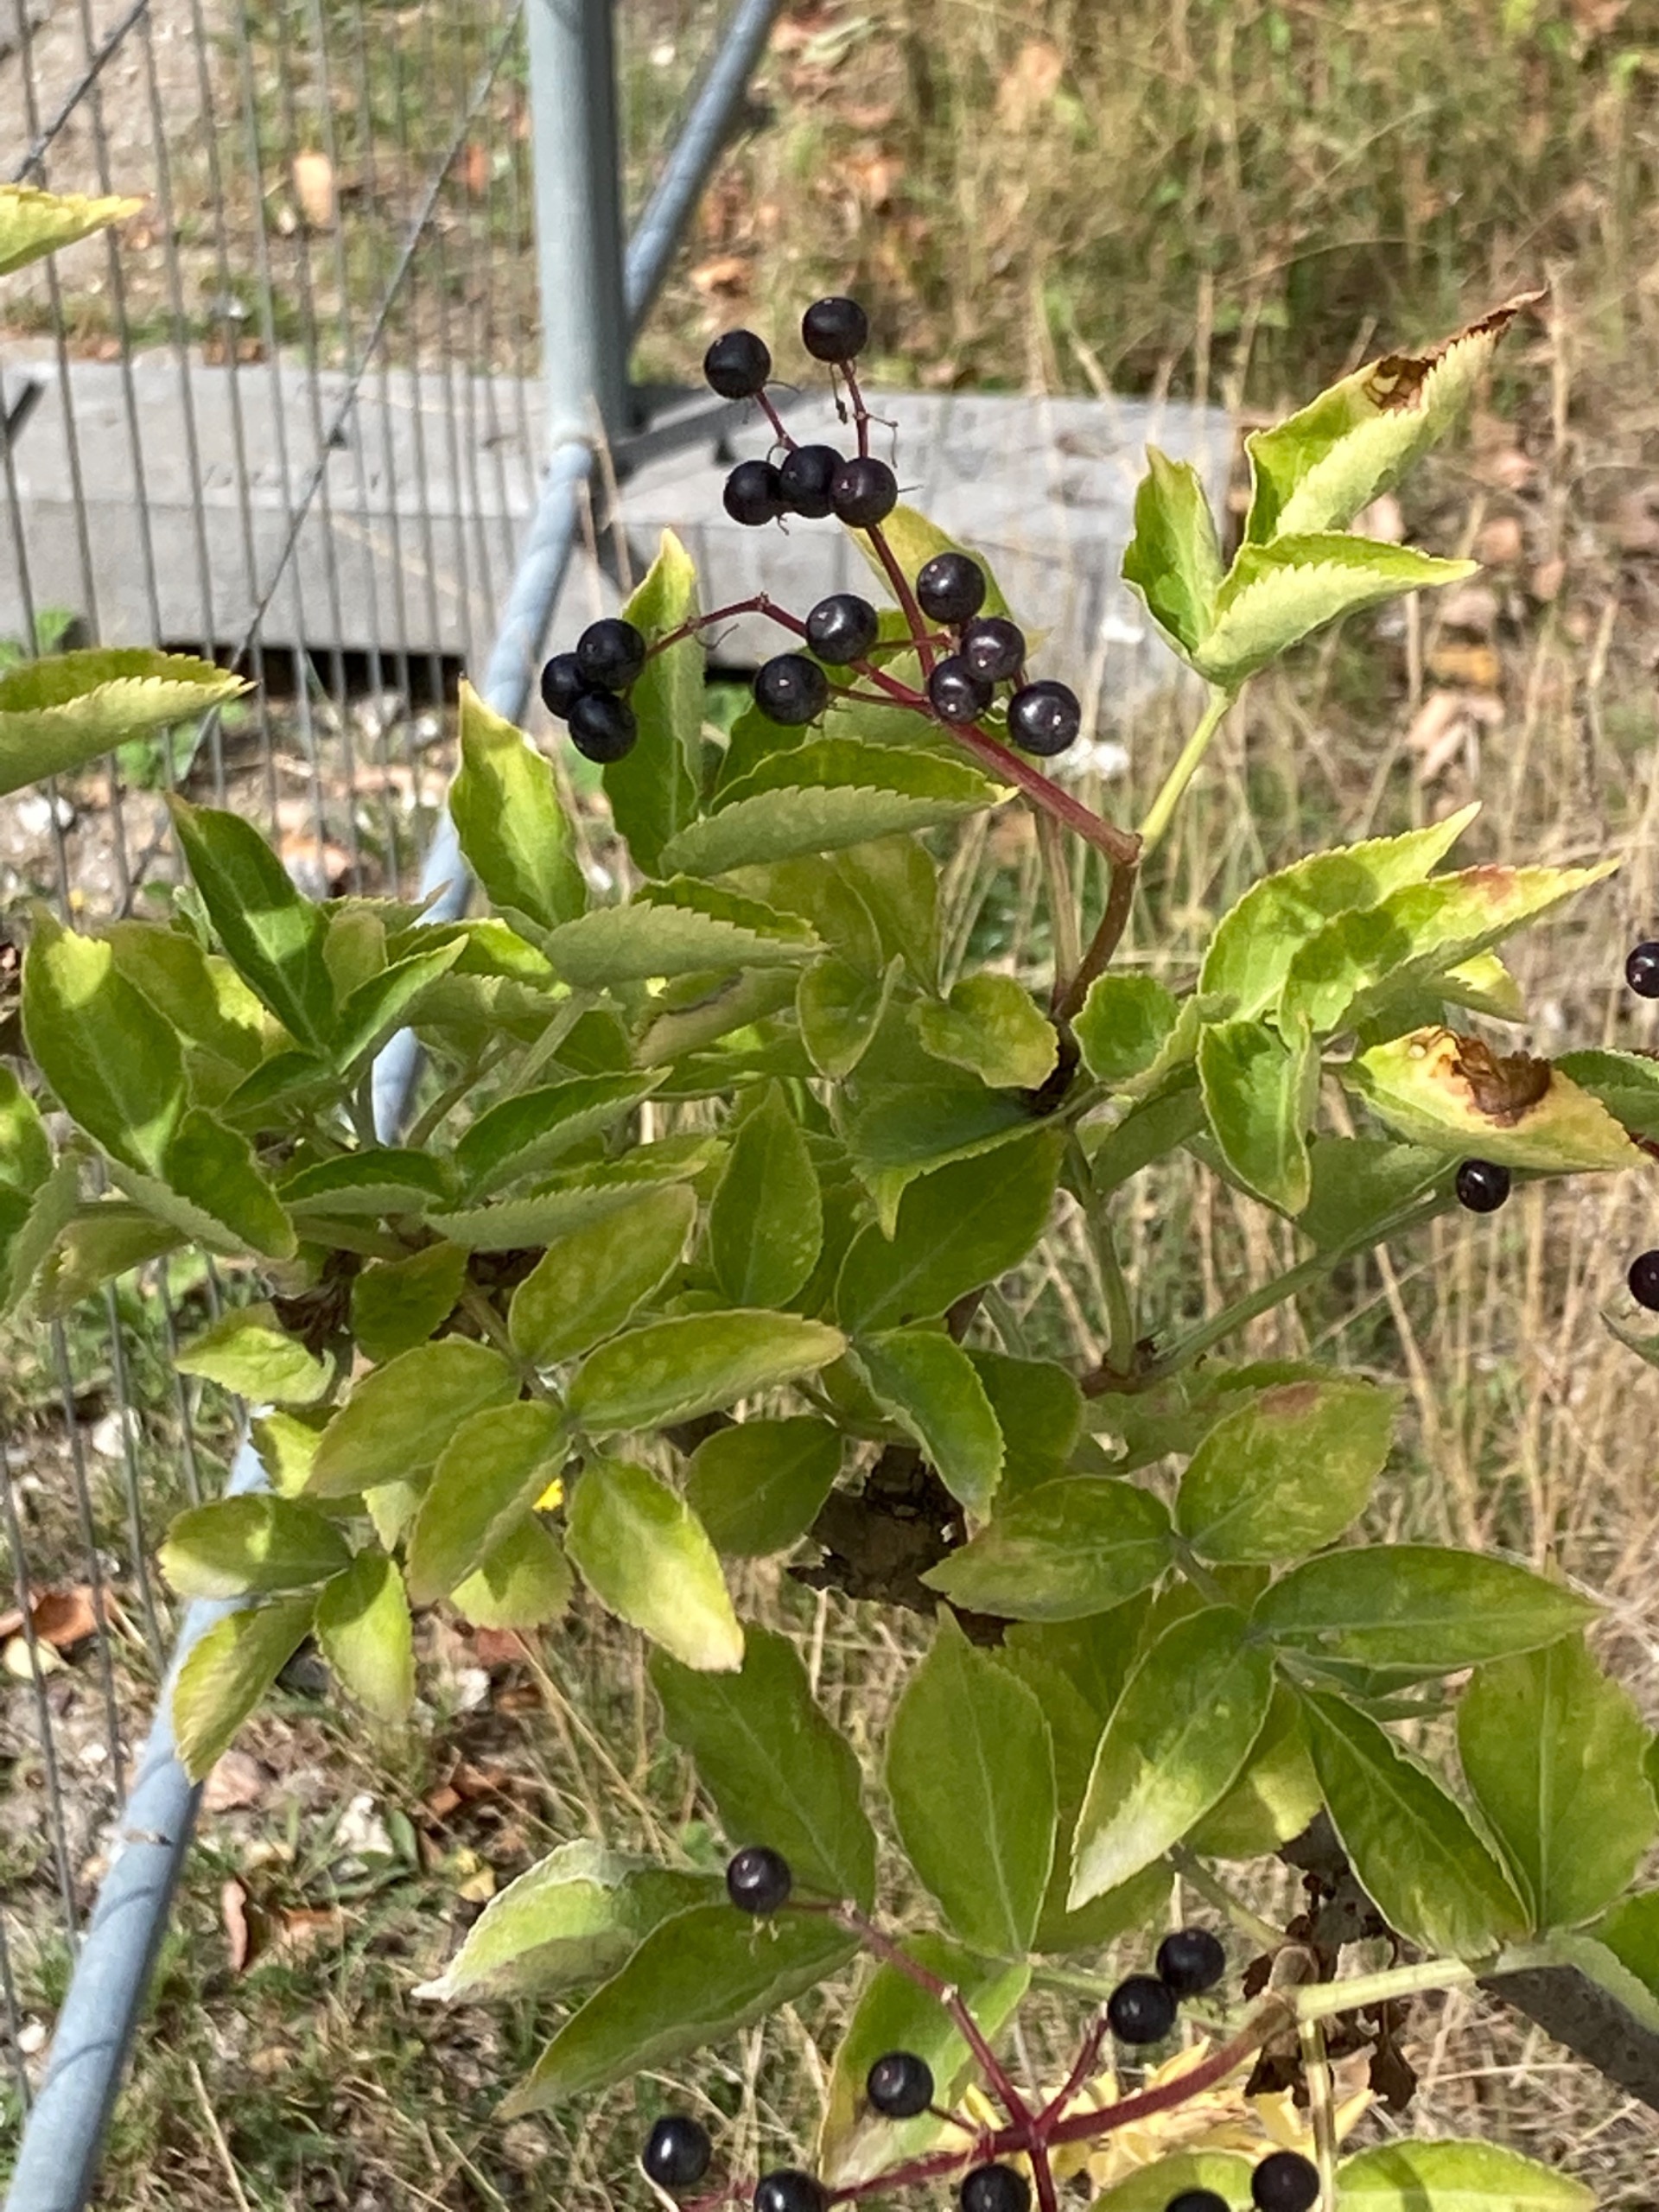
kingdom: Plantae
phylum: Tracheophyta
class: Magnoliopsida
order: Dipsacales
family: Viburnaceae
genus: Sambucus
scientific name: Sambucus nigra
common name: Almindelig hyld
